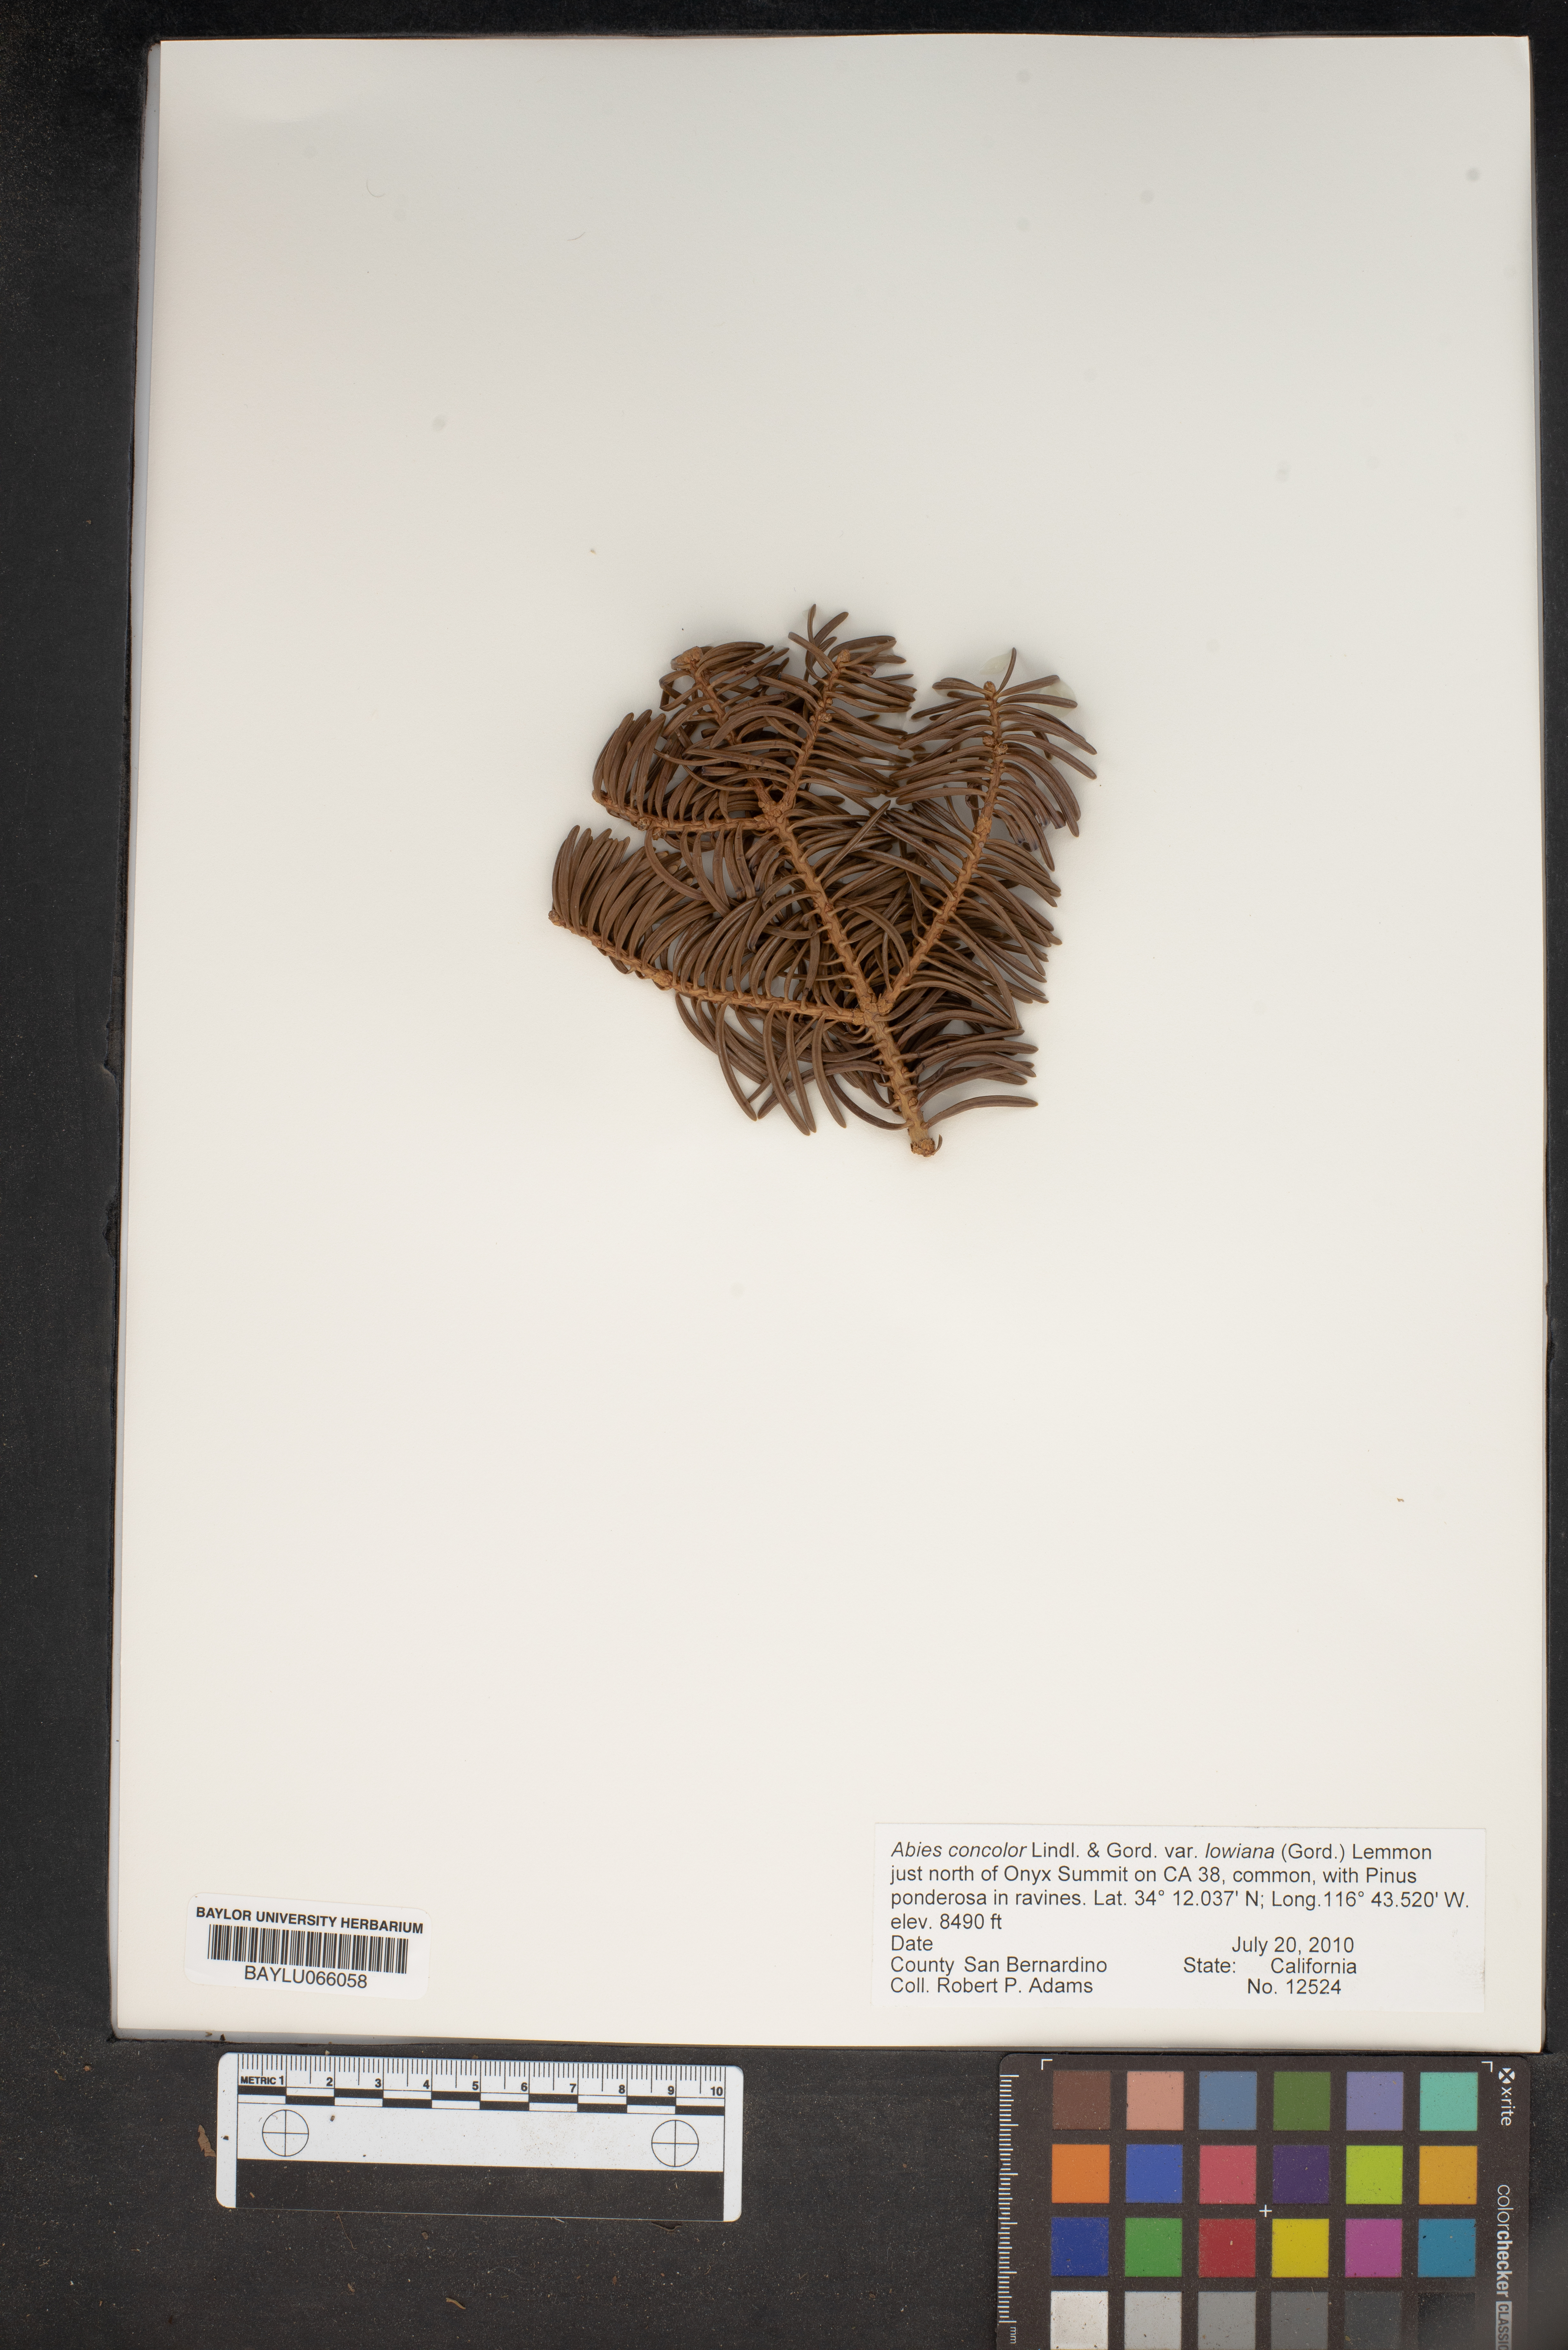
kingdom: Plantae
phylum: Tracheophyta
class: Pinopsida
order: Pinales
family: Pinaceae
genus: Abies
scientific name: Abies concolor
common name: Colorado fir
